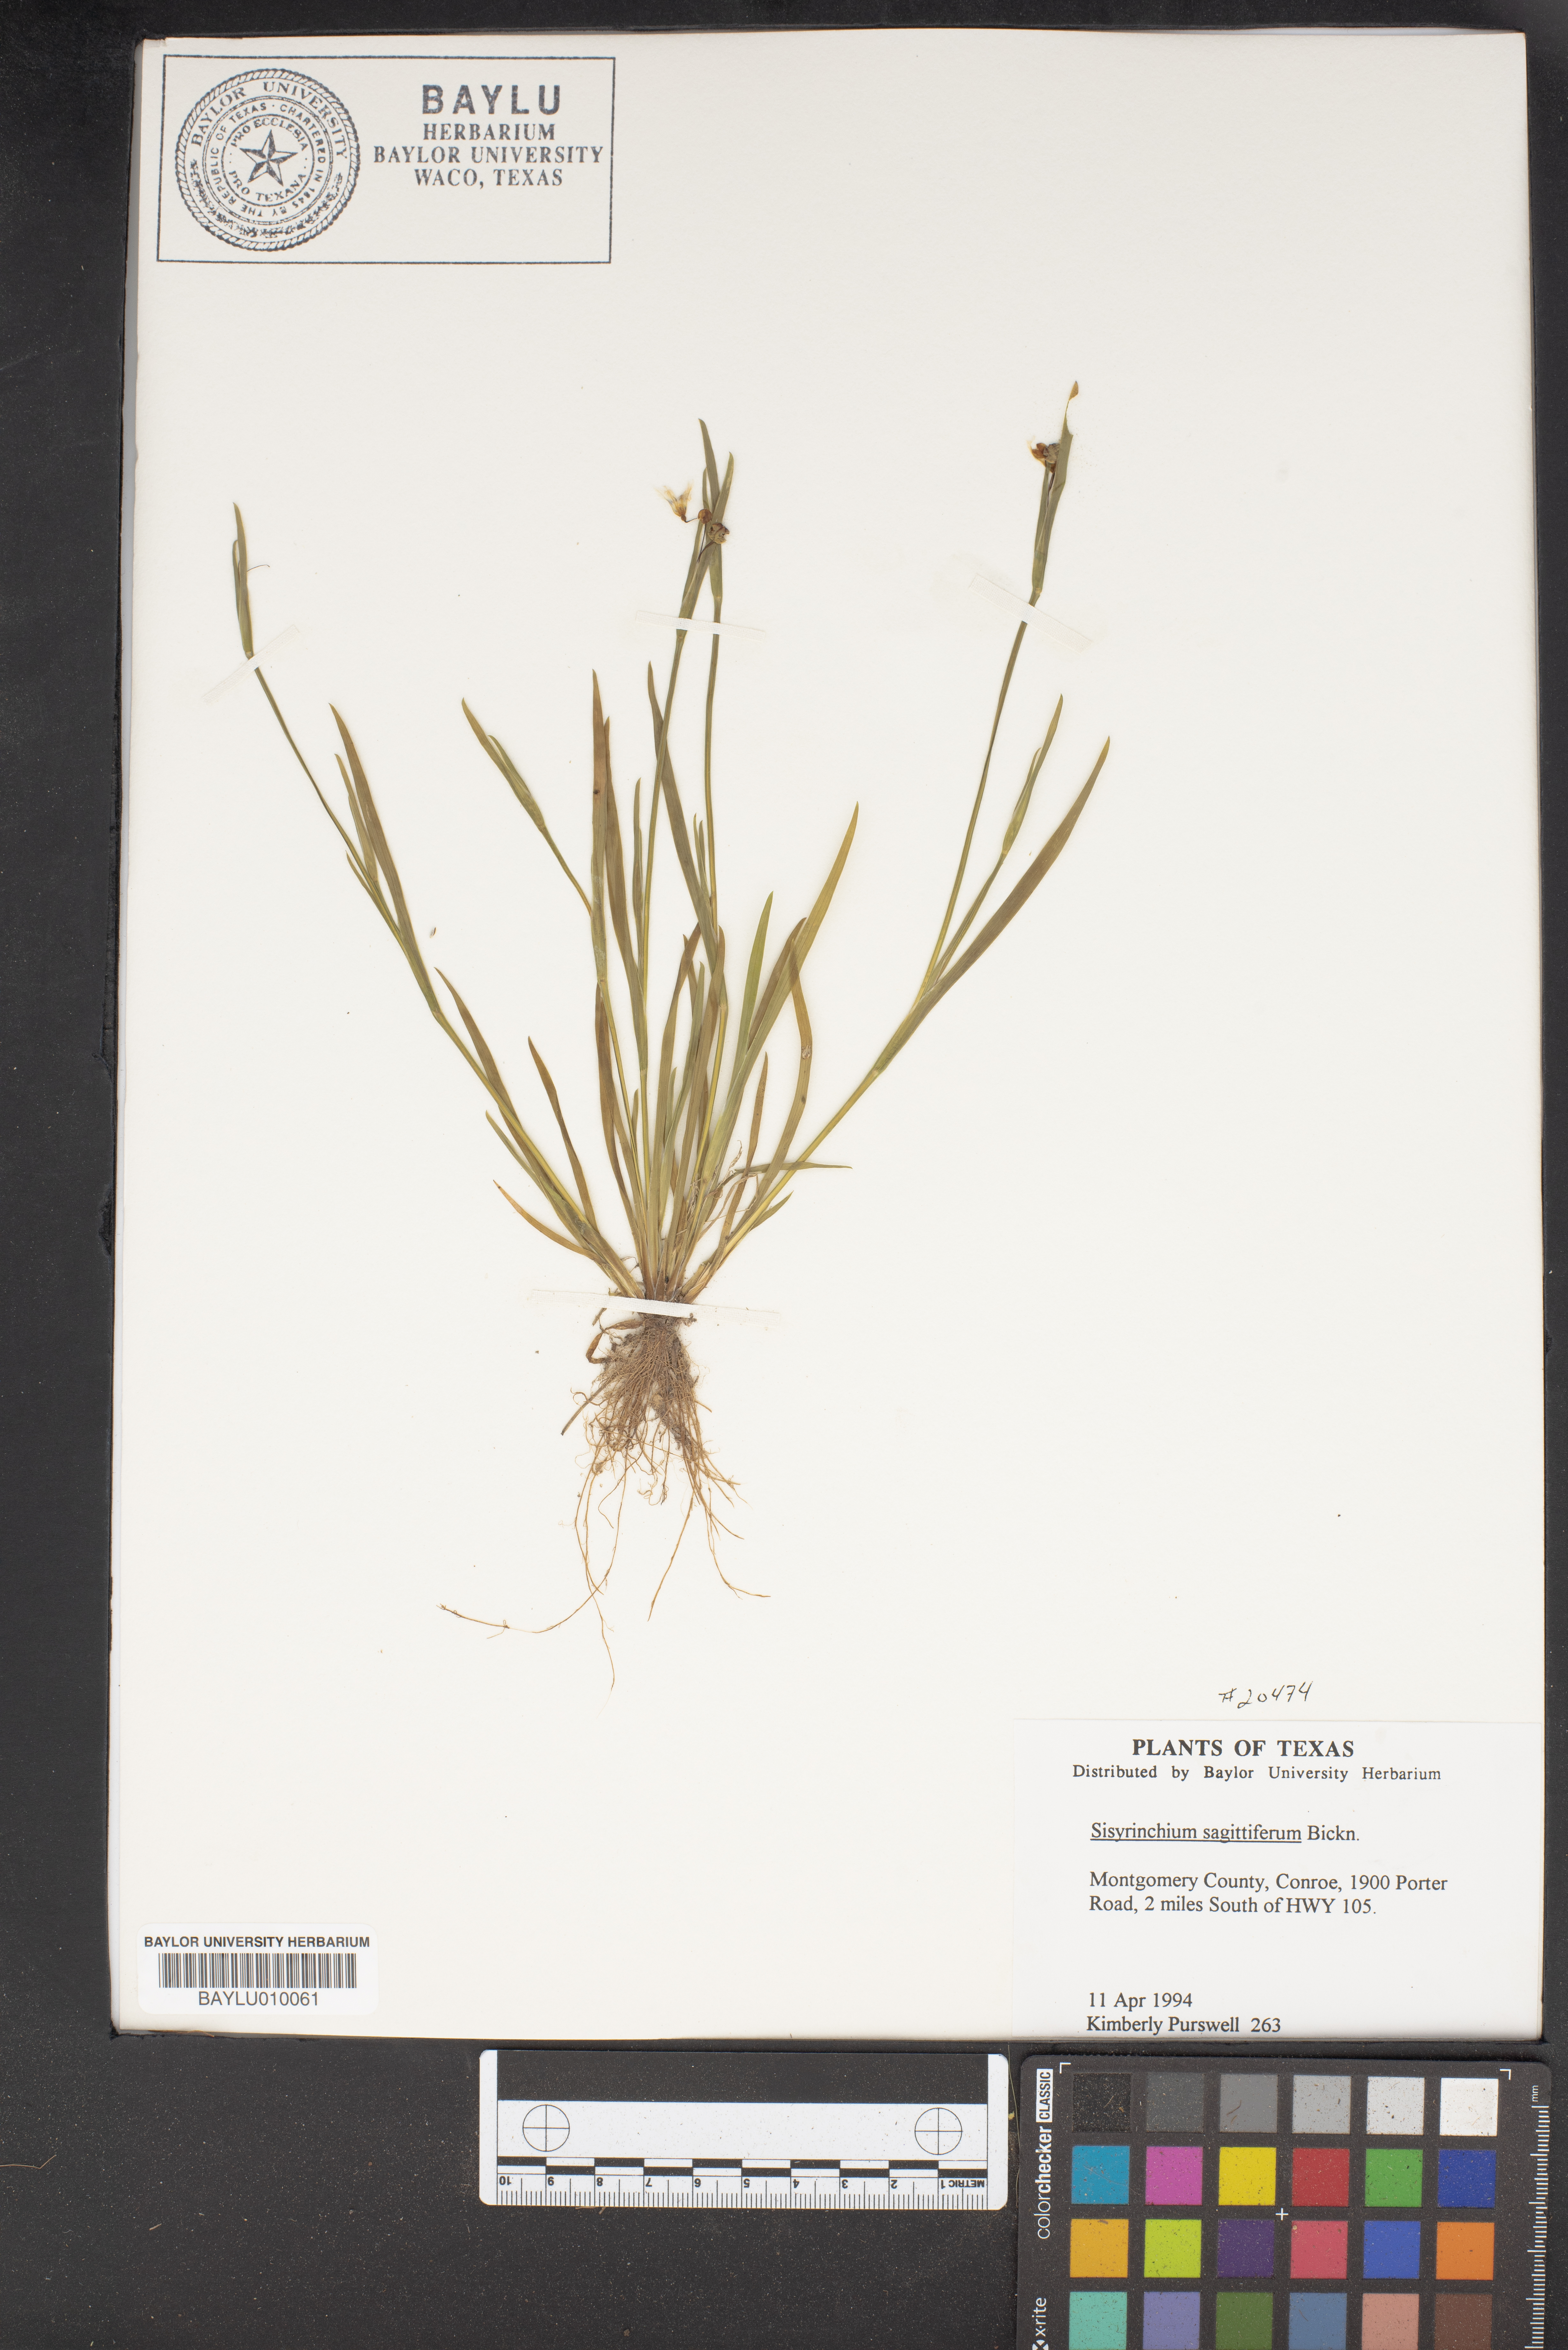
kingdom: Plantae
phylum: Tracheophyta
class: Liliopsida
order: Asparagales
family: Iridaceae
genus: Sisyrinchium
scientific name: Sisyrinchium sagittiferum
